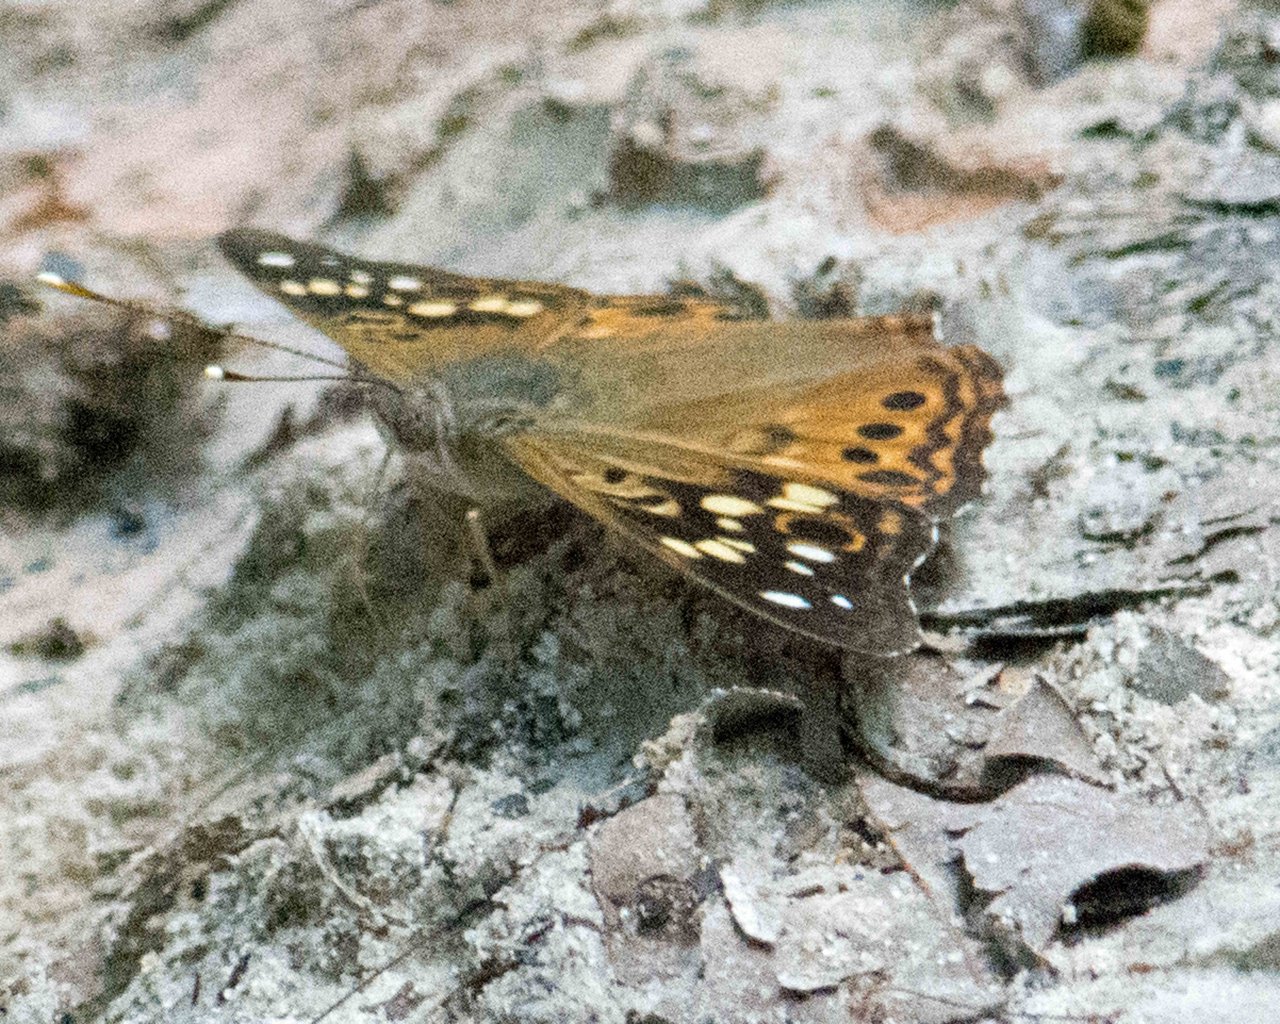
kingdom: Animalia
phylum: Arthropoda
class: Insecta
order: Lepidoptera
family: Nymphalidae
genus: Asterocampa
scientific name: Asterocampa celtis
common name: Hackberry Emperor
